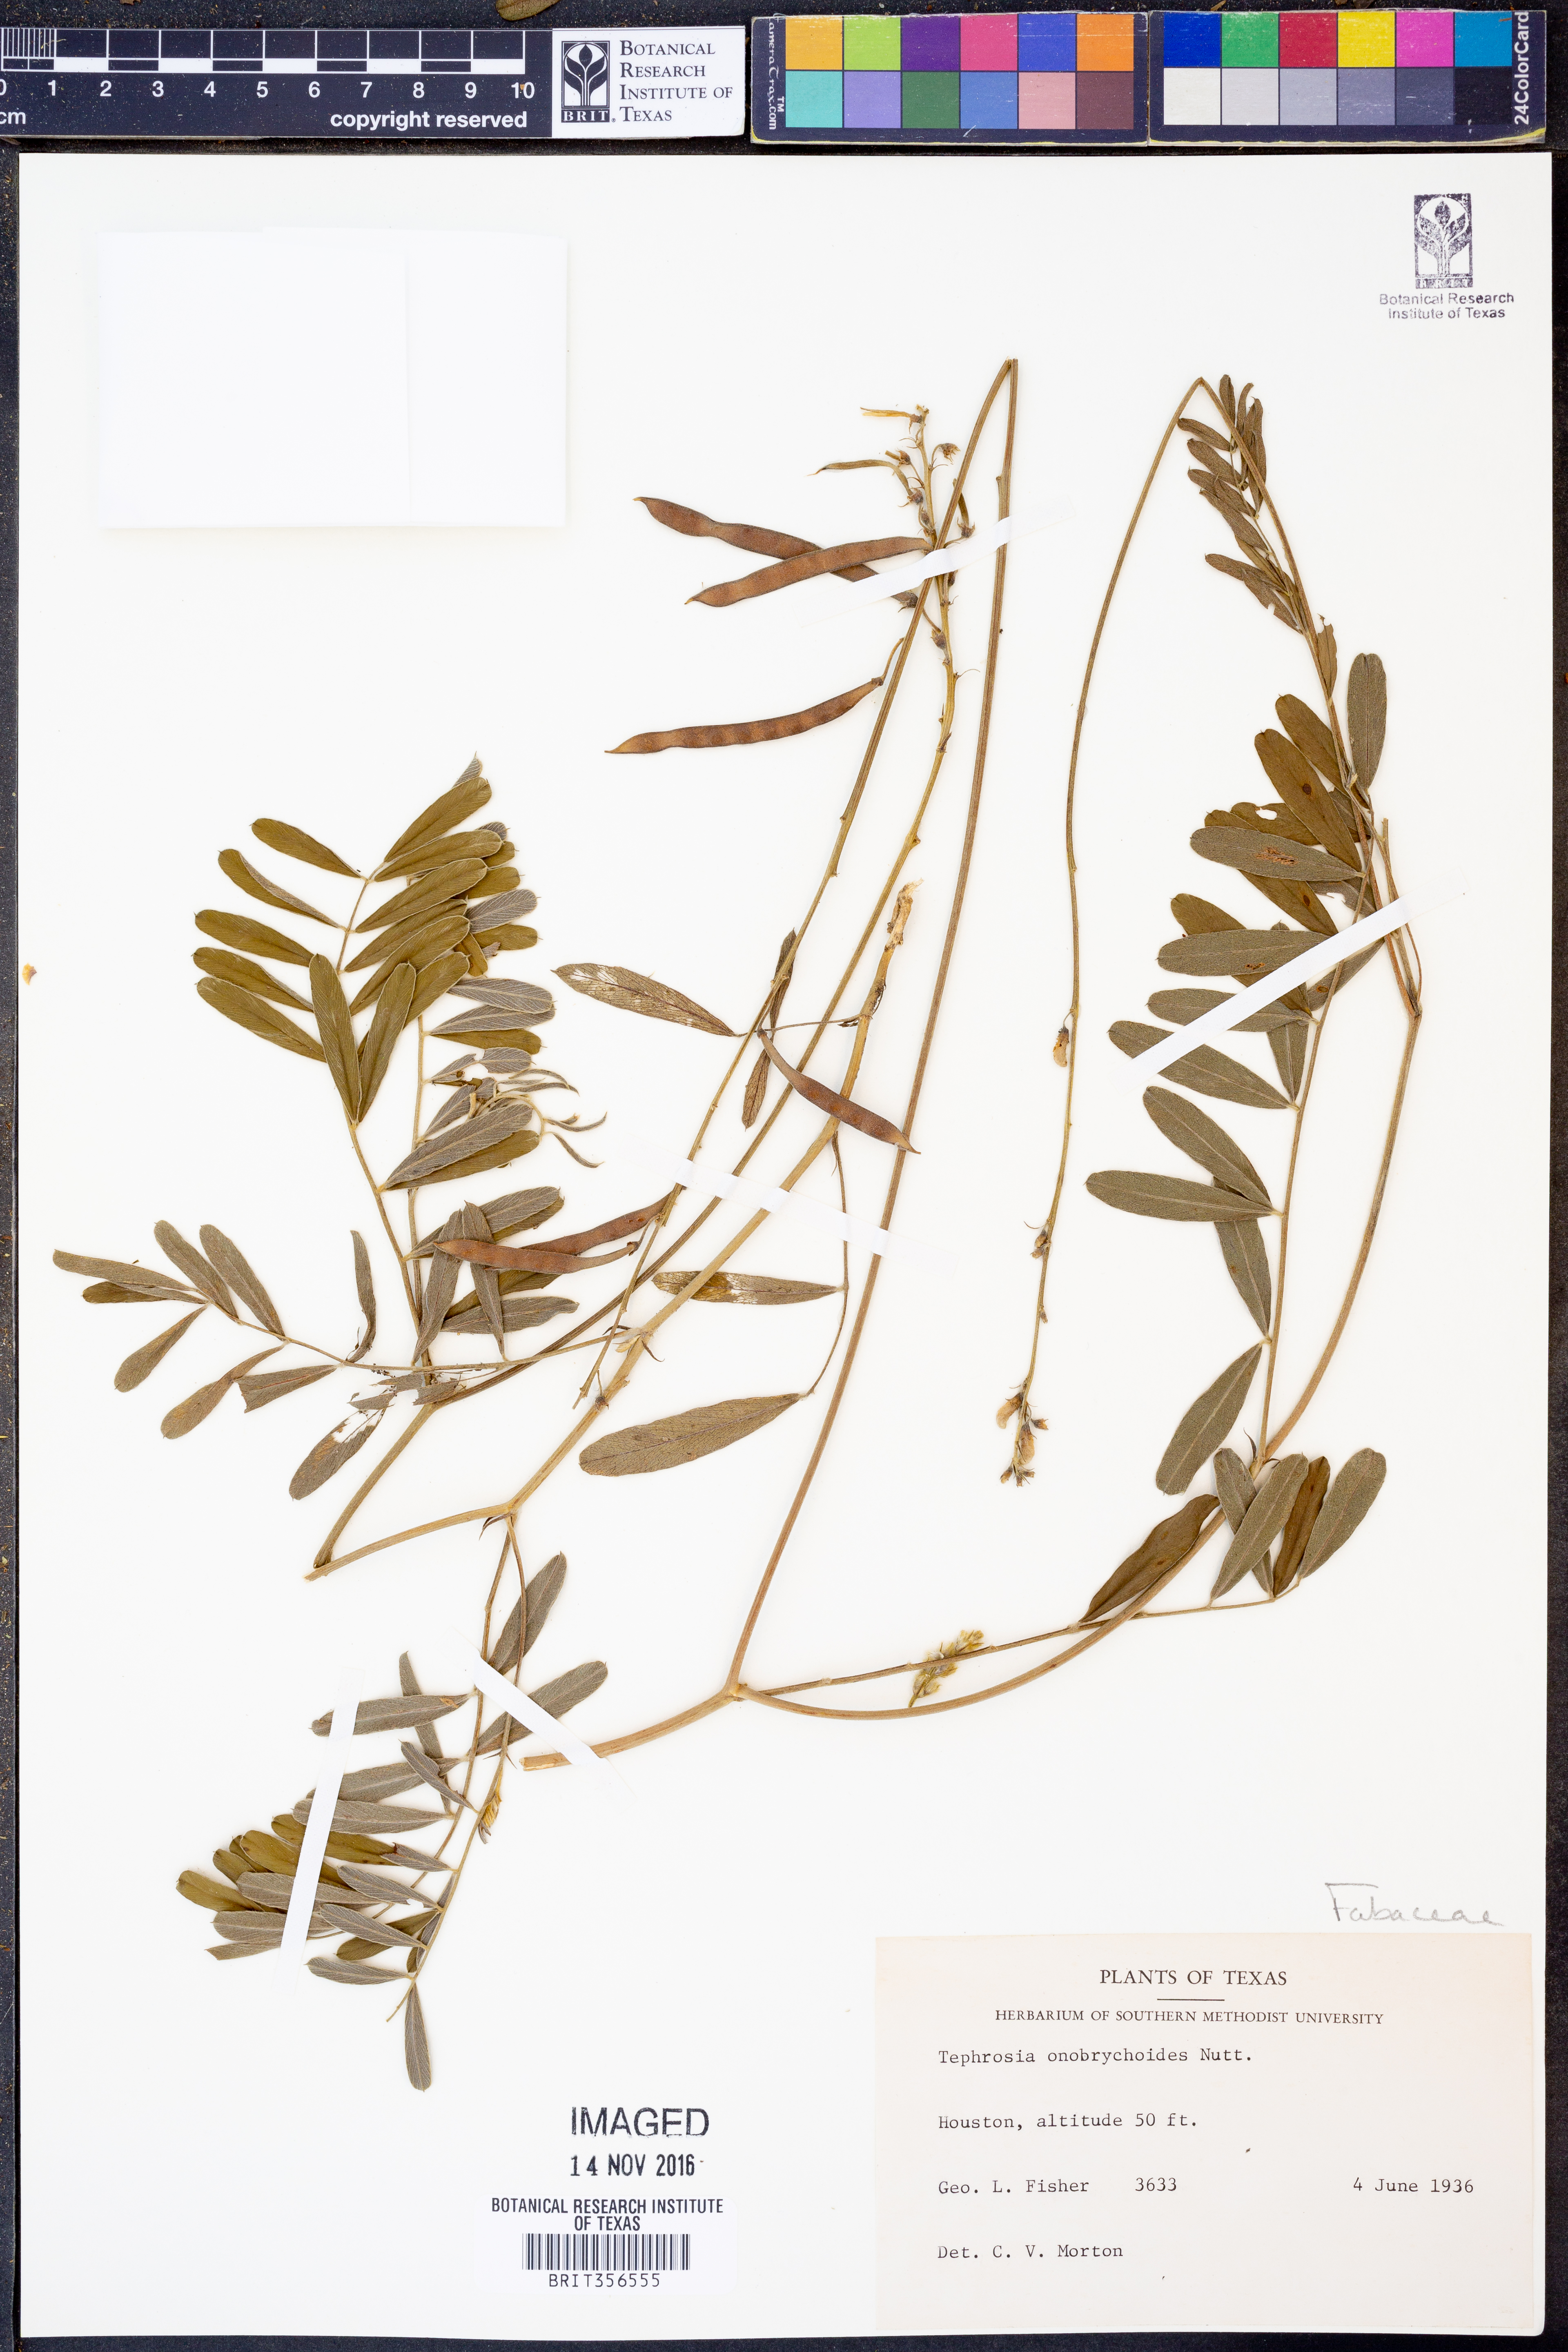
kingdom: Plantae
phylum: Tracheophyta
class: Magnoliopsida
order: Fabales
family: Fabaceae
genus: Tephrosia
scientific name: Tephrosia onobrychoides
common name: Multi-bloom hoary-pea
